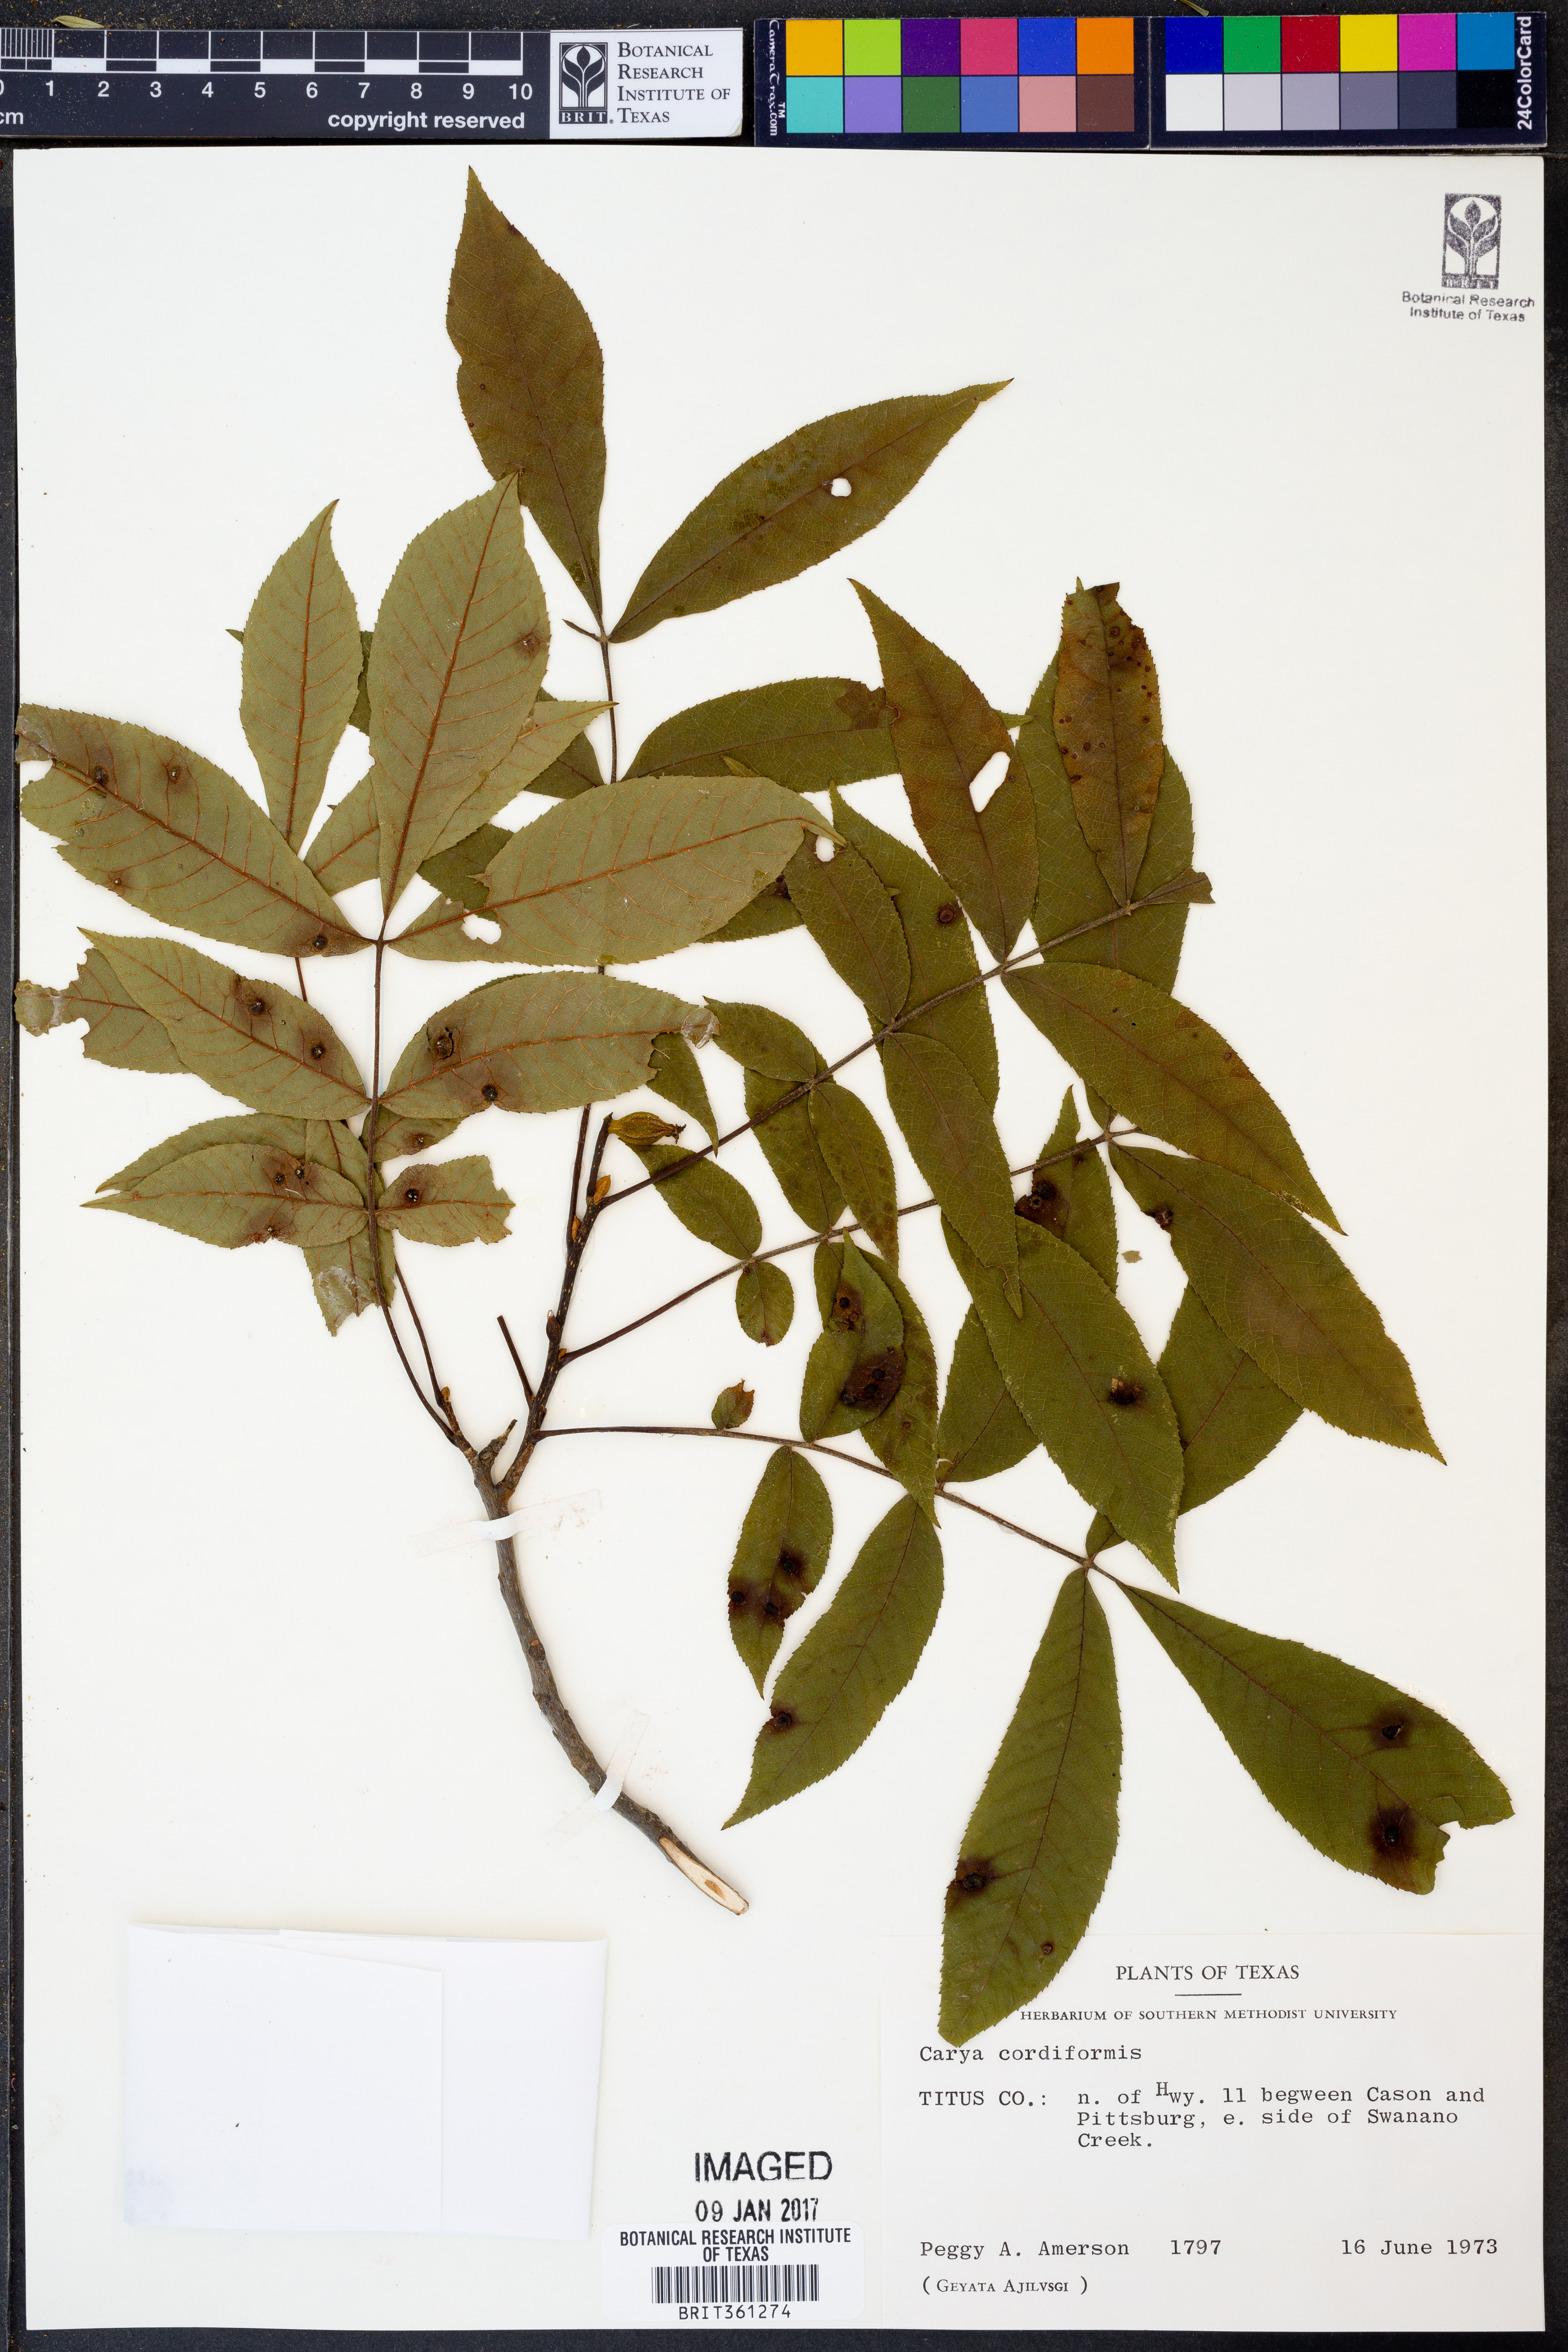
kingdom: Plantae
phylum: Tracheophyta
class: Magnoliopsida
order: Fagales
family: Juglandaceae
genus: Carya
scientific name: Carya cordiformis
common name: Bitternut hickory
